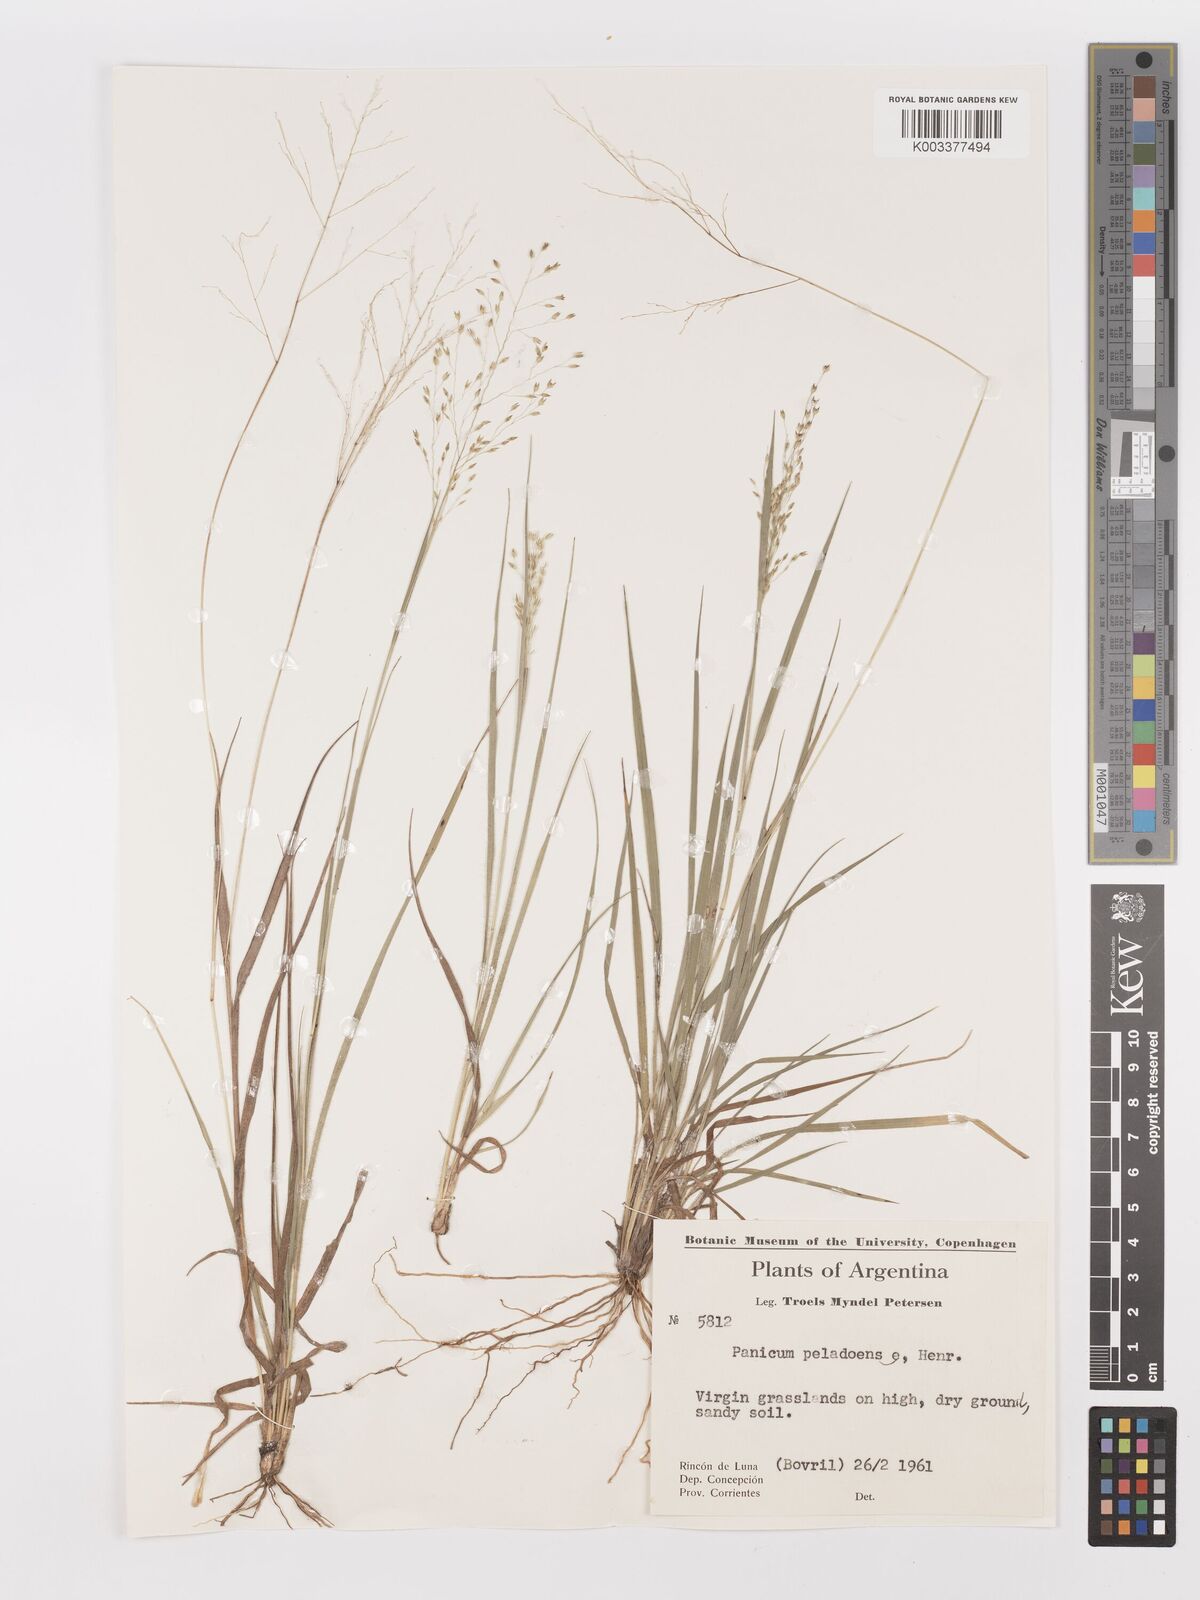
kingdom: Plantae
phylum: Tracheophyta
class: Liliopsida
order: Poales
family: Poaceae
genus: Panicum
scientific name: Panicum peladoense
